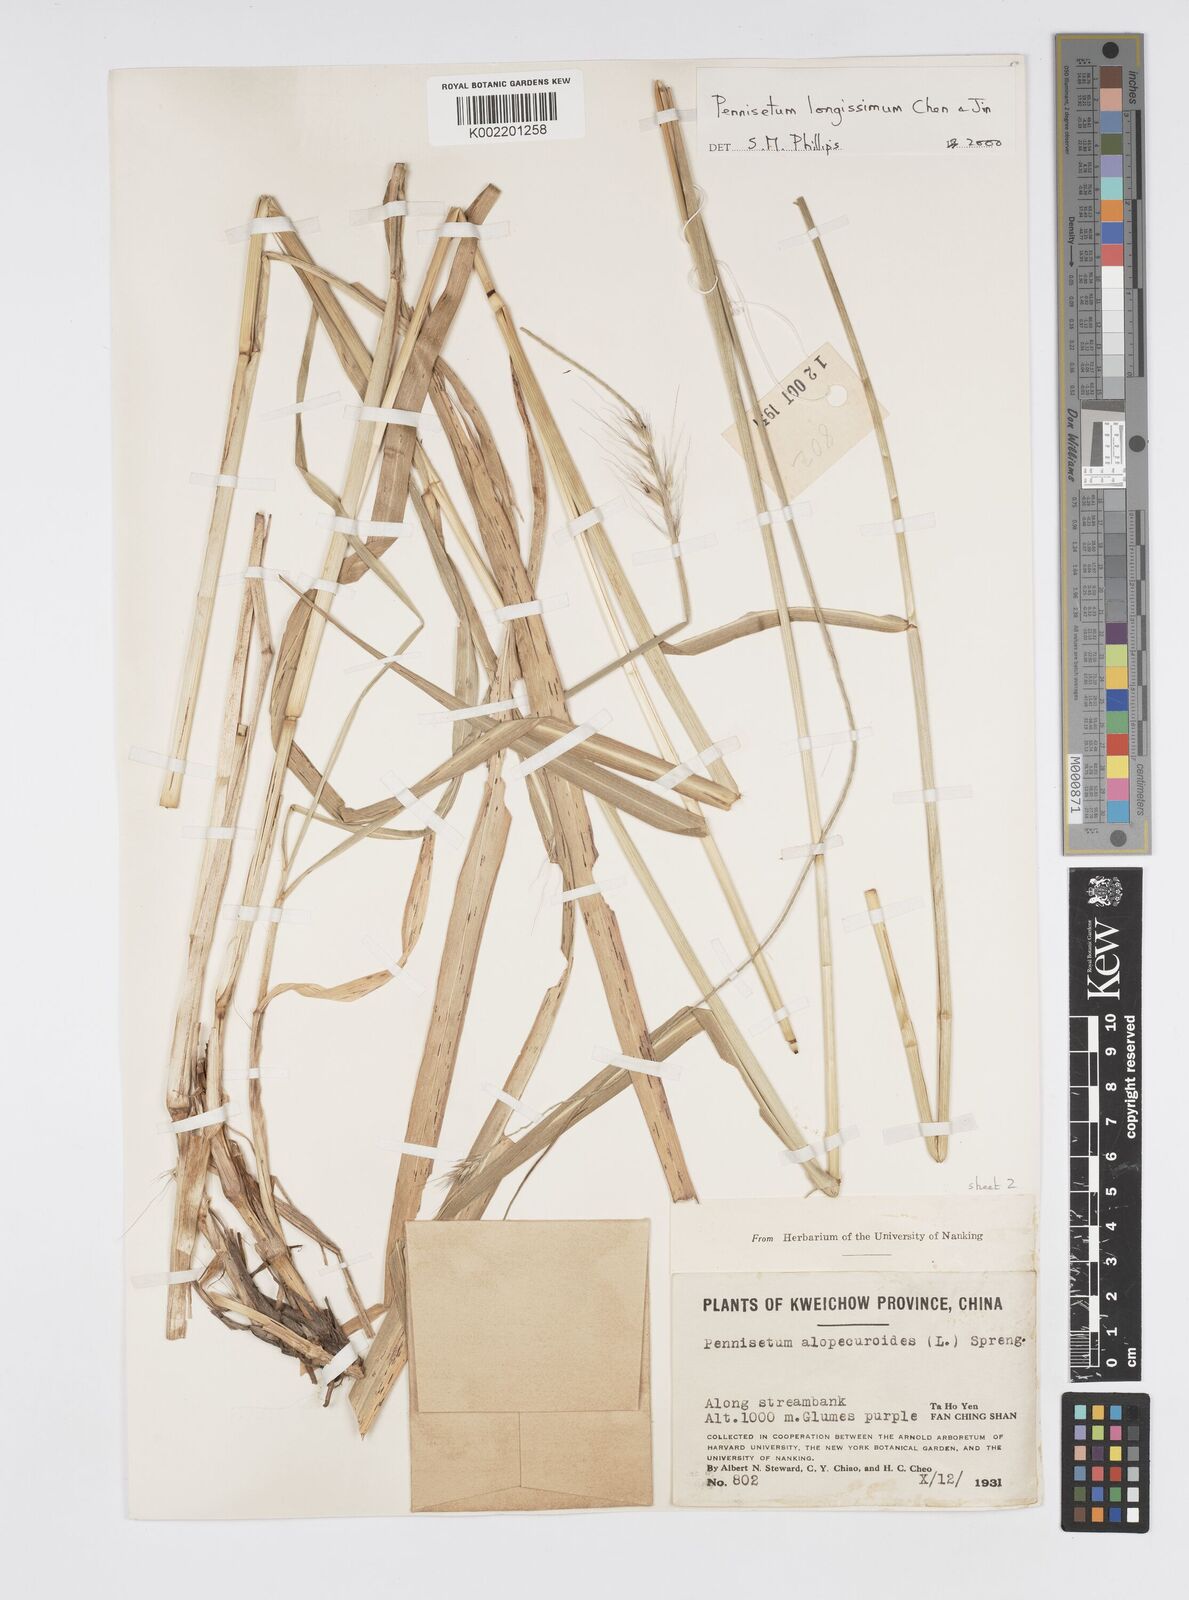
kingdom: Plantae
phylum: Tracheophyta
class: Liliopsida
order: Poales
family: Poaceae
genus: Cenchrus
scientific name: Cenchrus longissimus
